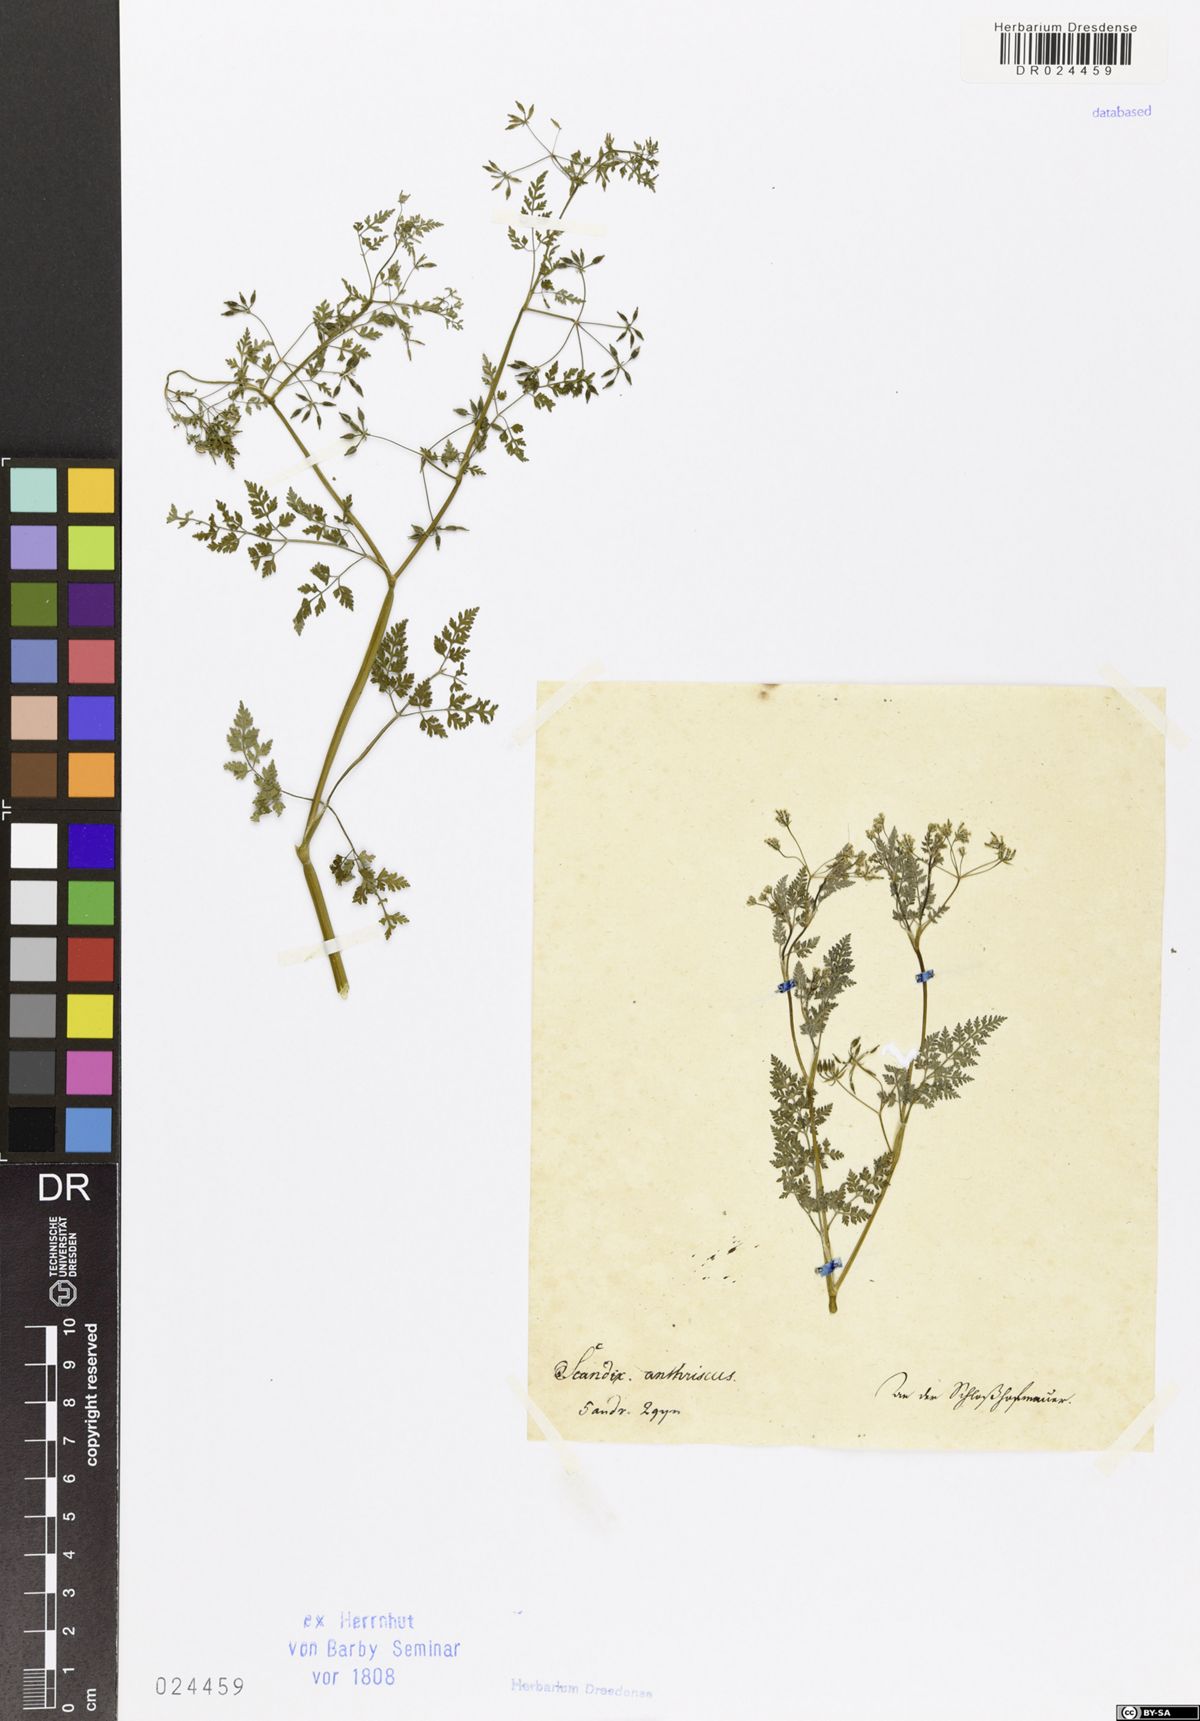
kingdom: Plantae
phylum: Tracheophyta
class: Magnoliopsida
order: Apiales
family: Apiaceae
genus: Anthriscus
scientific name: Anthriscus caucalis
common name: Bur chervil
